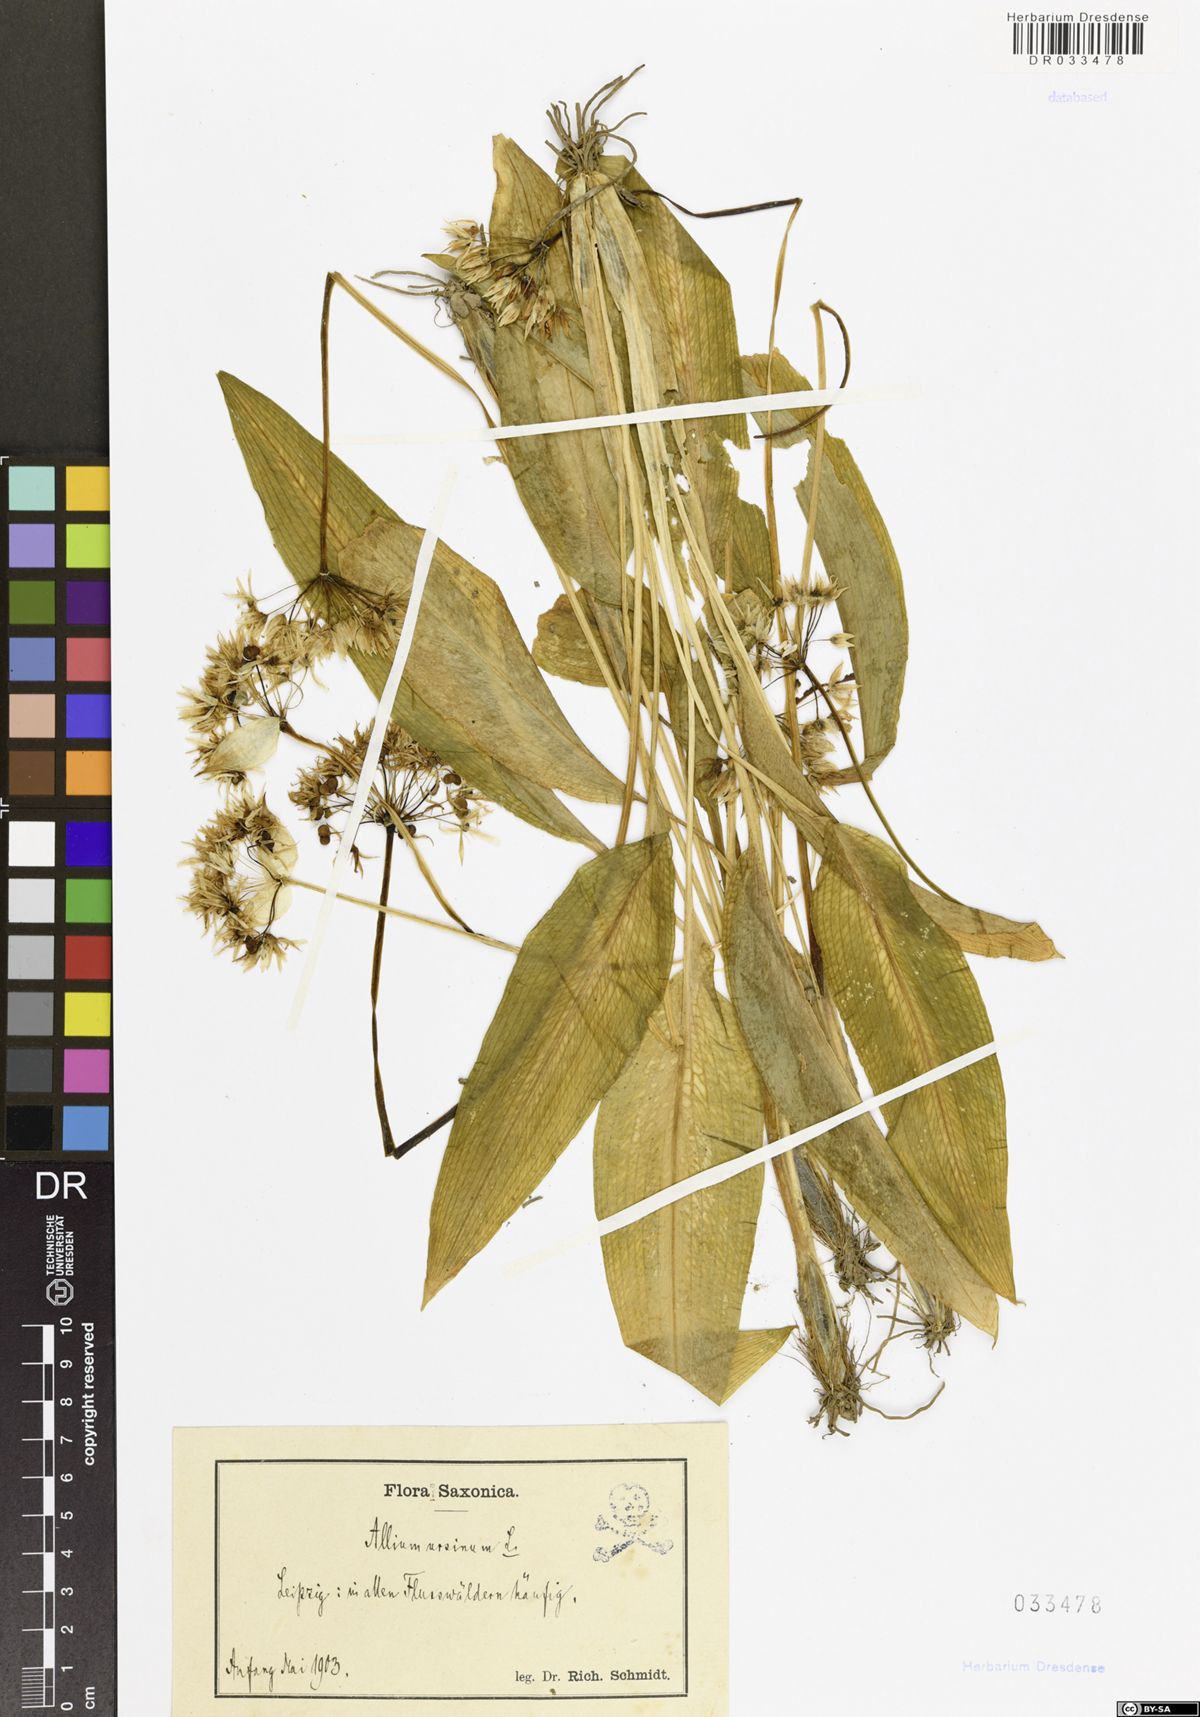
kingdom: Plantae
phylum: Tracheophyta
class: Liliopsida
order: Asparagales
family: Amaryllidaceae
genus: Allium
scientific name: Allium ursinum
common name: Ramsons
